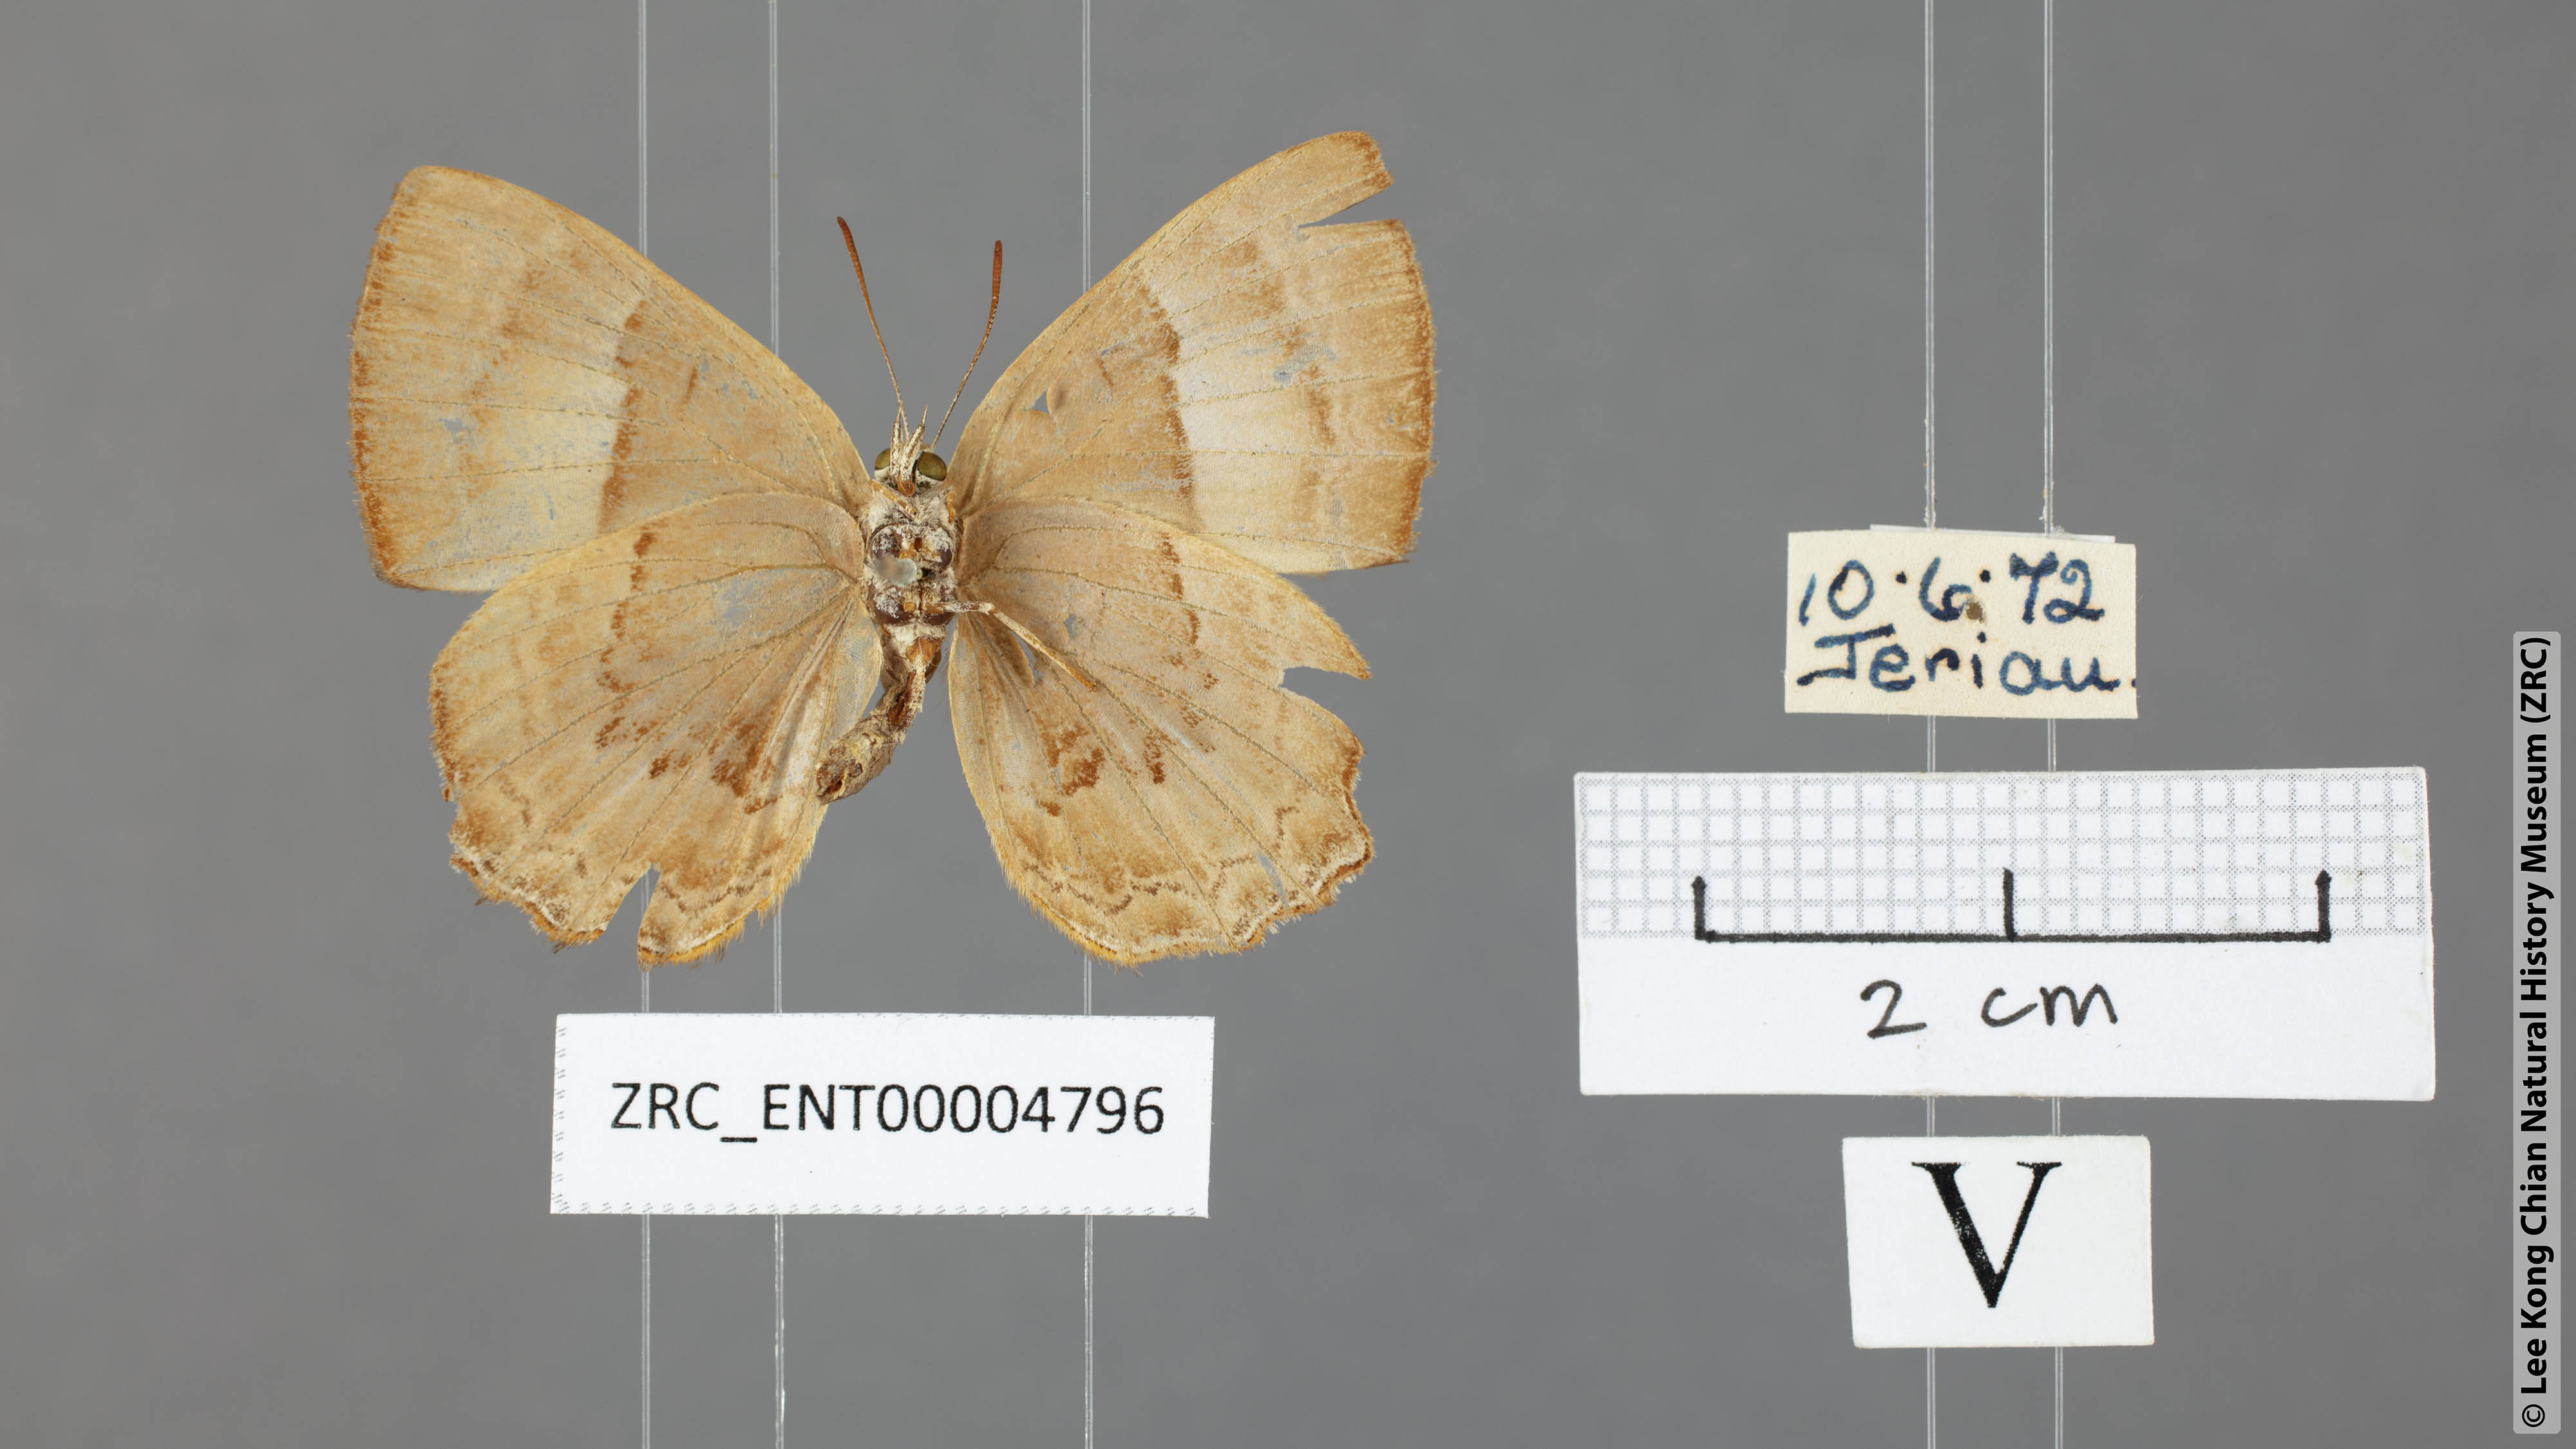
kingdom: Animalia
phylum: Arthropoda
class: Insecta
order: Lepidoptera
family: Lycaenidae
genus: Poritia
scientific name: Poritia proxina
